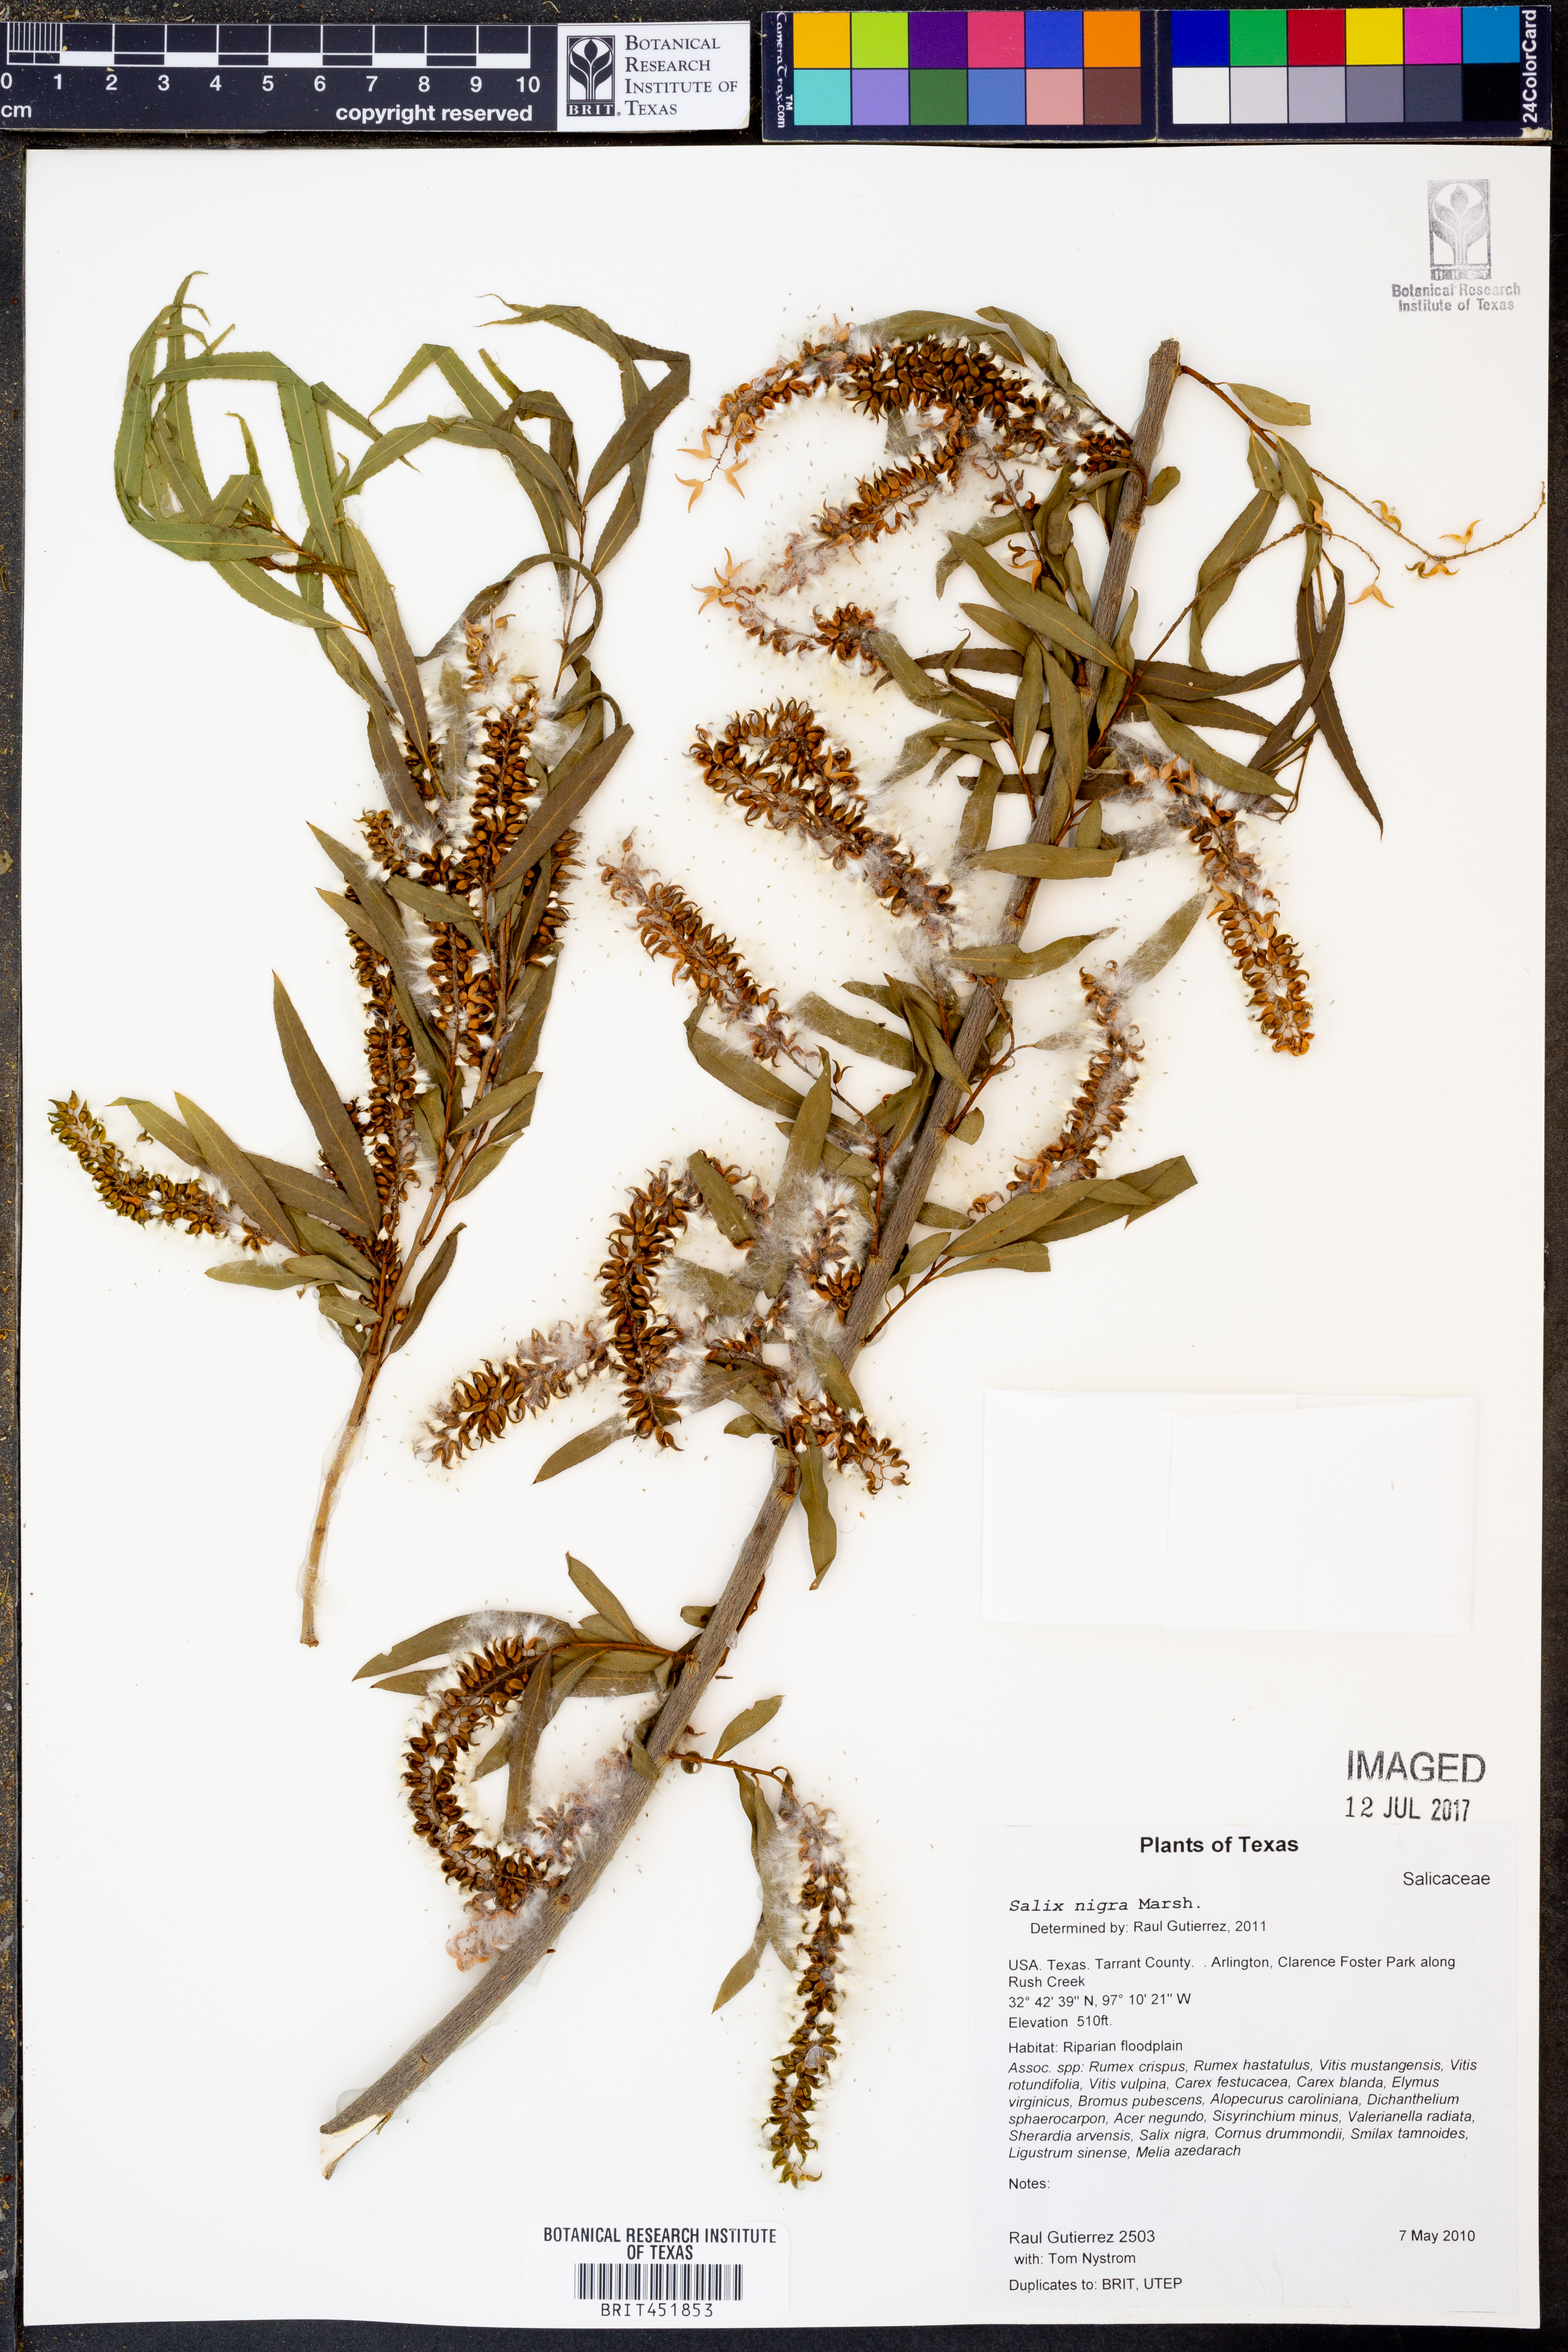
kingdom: Plantae
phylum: Tracheophyta
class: Magnoliopsida
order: Malpighiales
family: Salicaceae
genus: Salix
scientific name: Salix nigra
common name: Black willow
